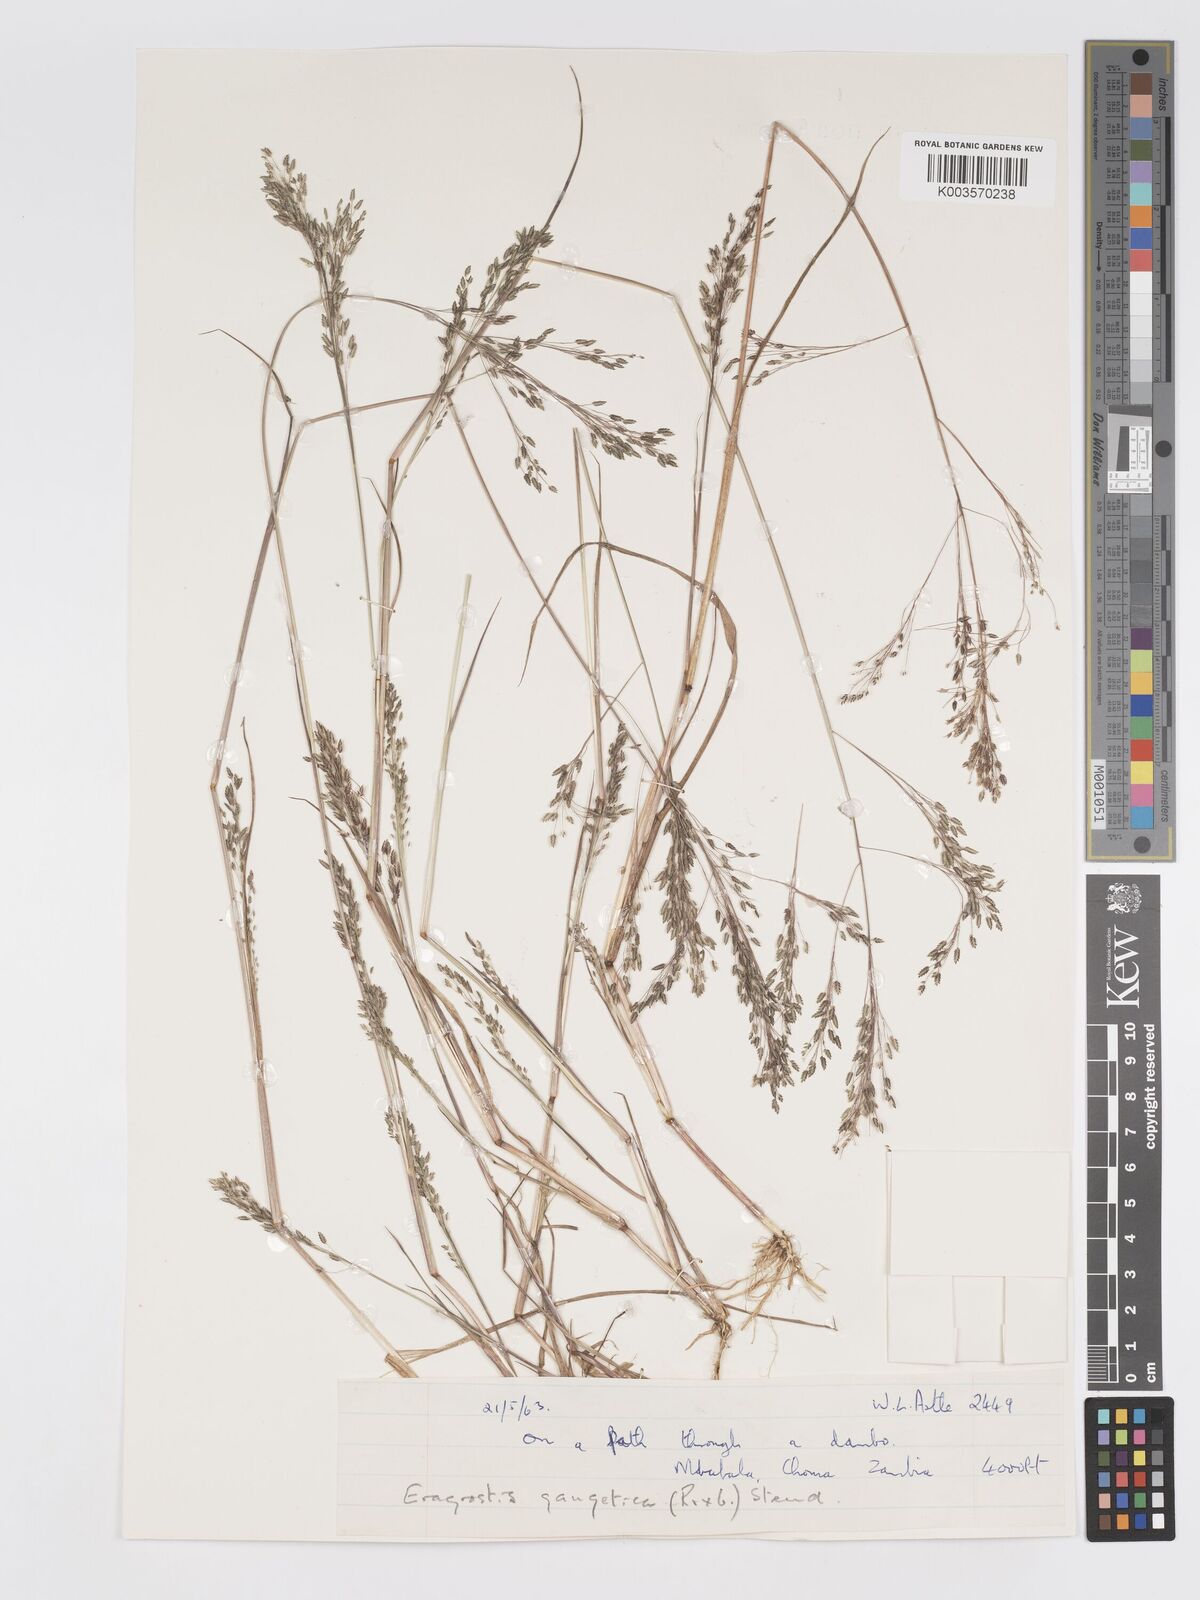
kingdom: Plantae
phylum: Tracheophyta
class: Liliopsida
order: Poales
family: Poaceae
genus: Eragrostis
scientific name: Eragrostis gangetica
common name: Slimflower lovegrass
